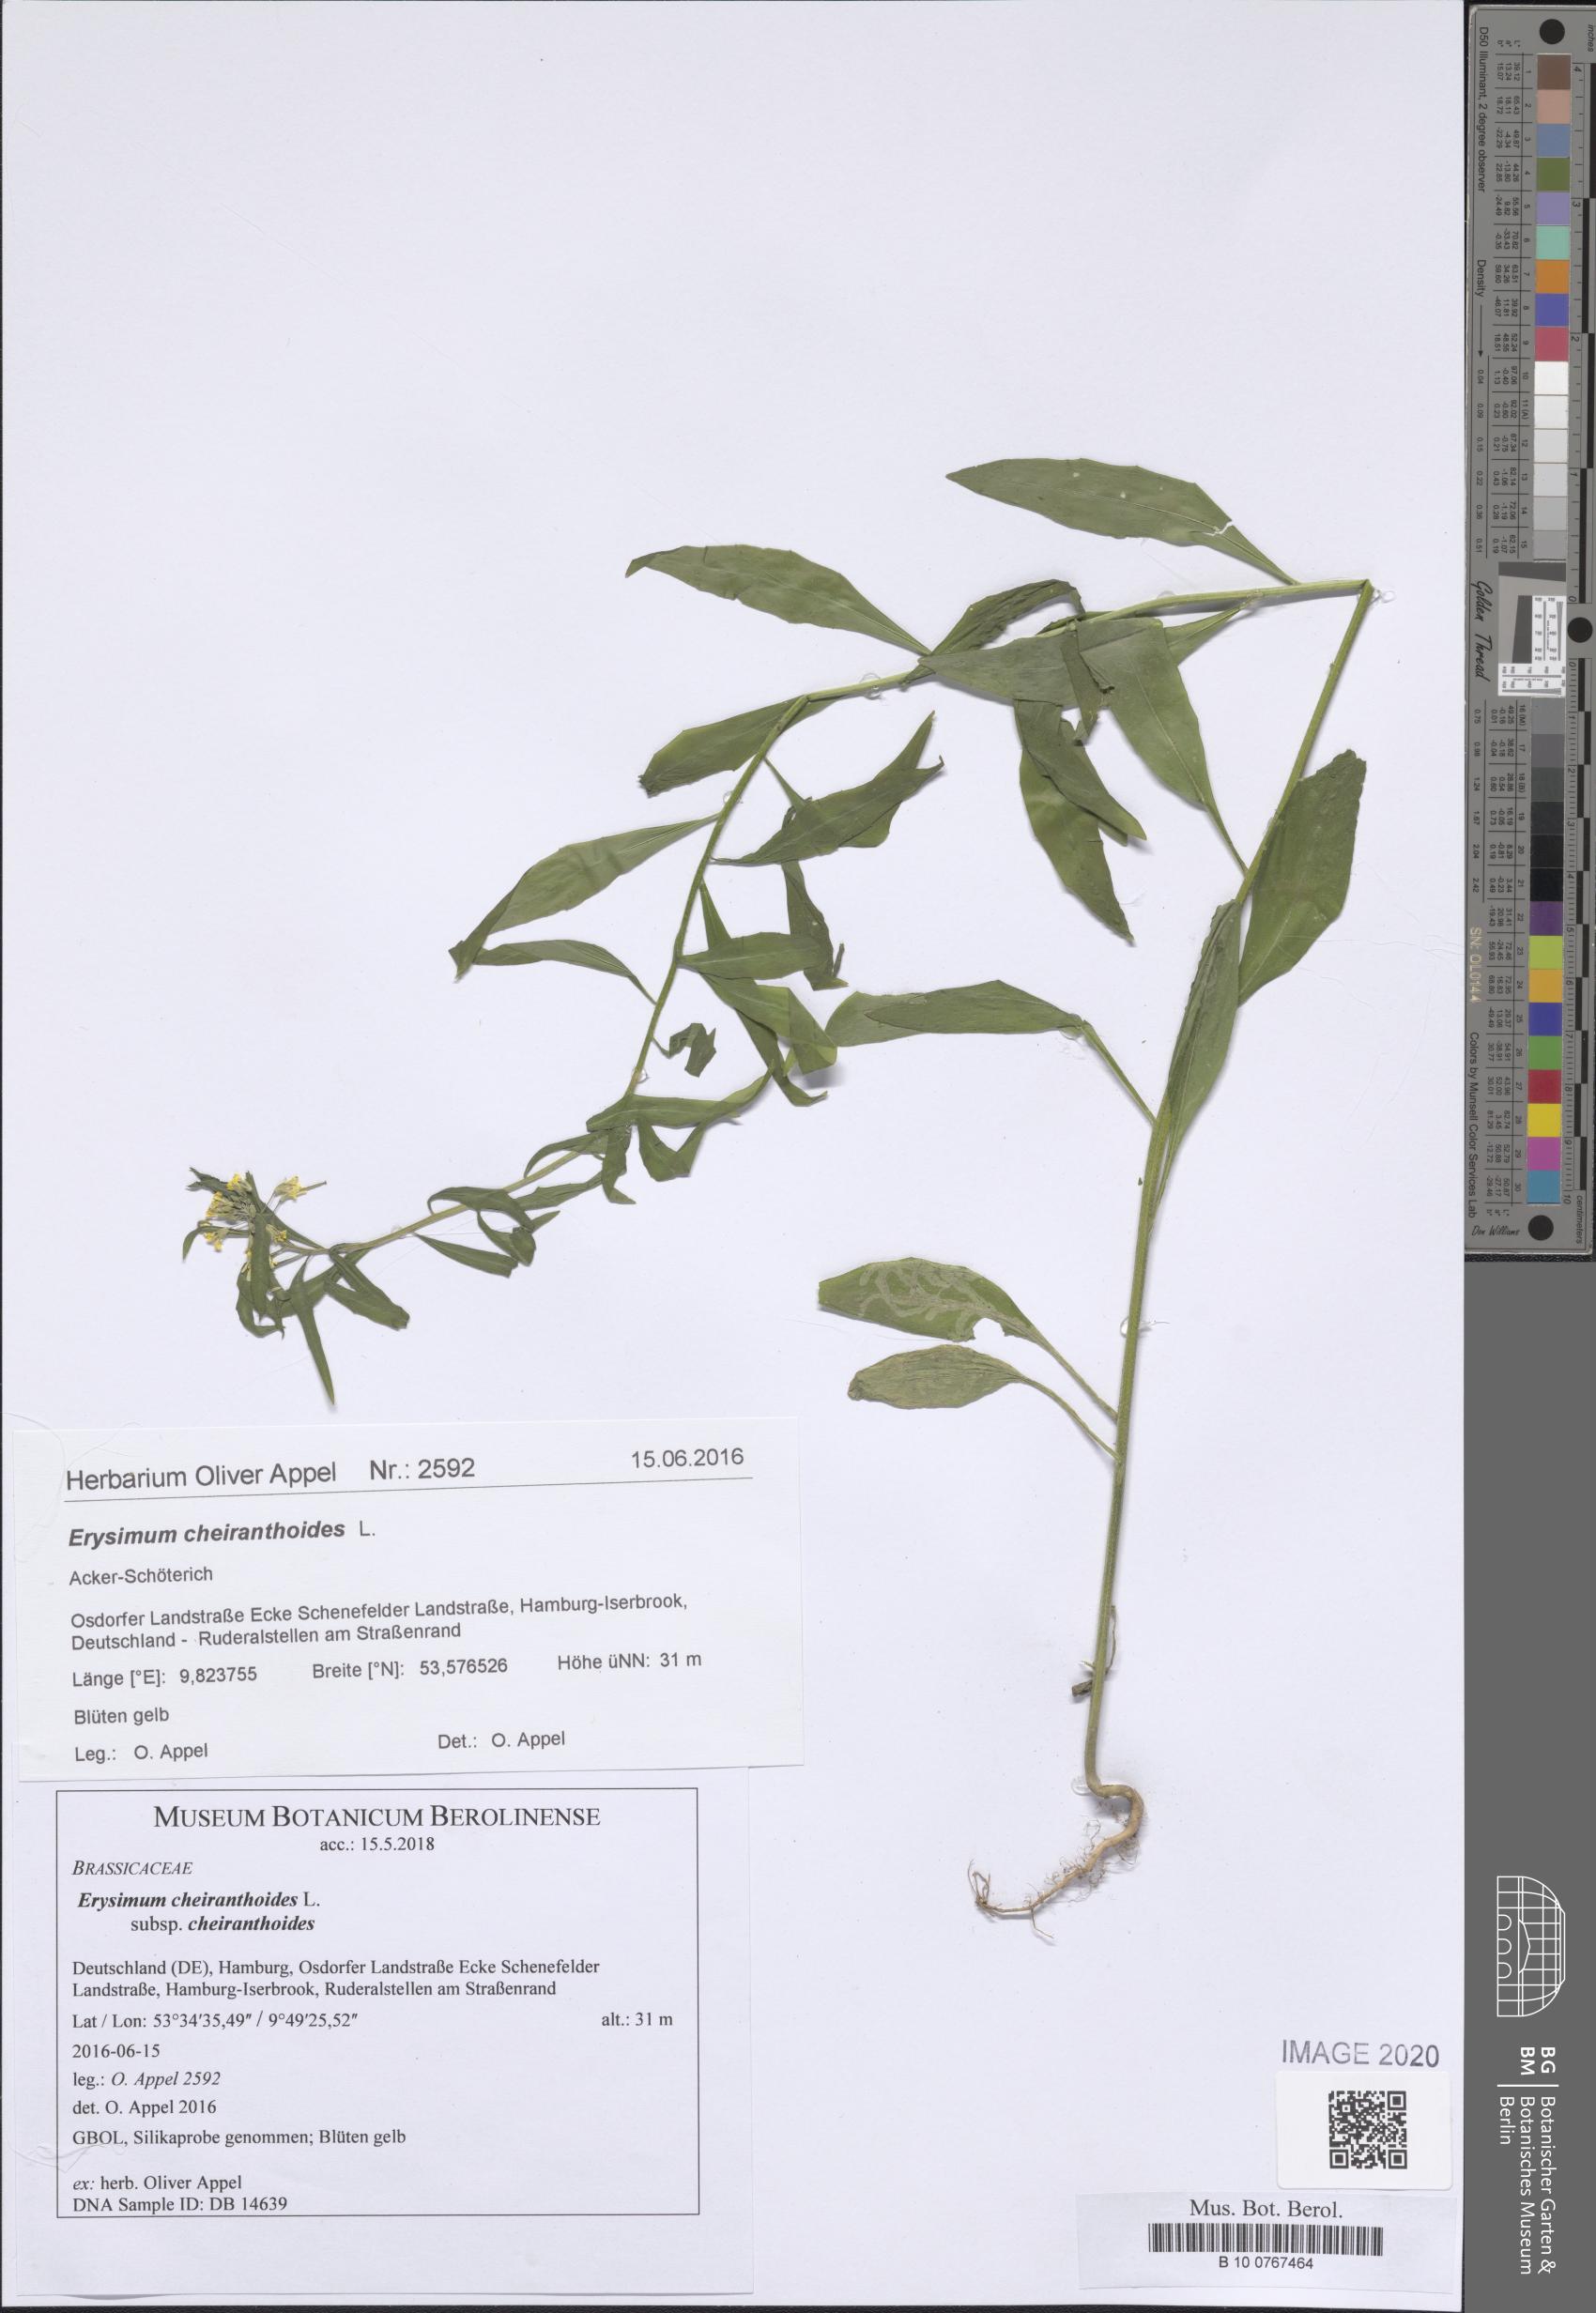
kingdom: Plantae
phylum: Tracheophyta
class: Magnoliopsida
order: Brassicales
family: Brassicaceae
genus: Erysimum
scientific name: Erysimum cheiranthoides
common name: Treacle mustard
